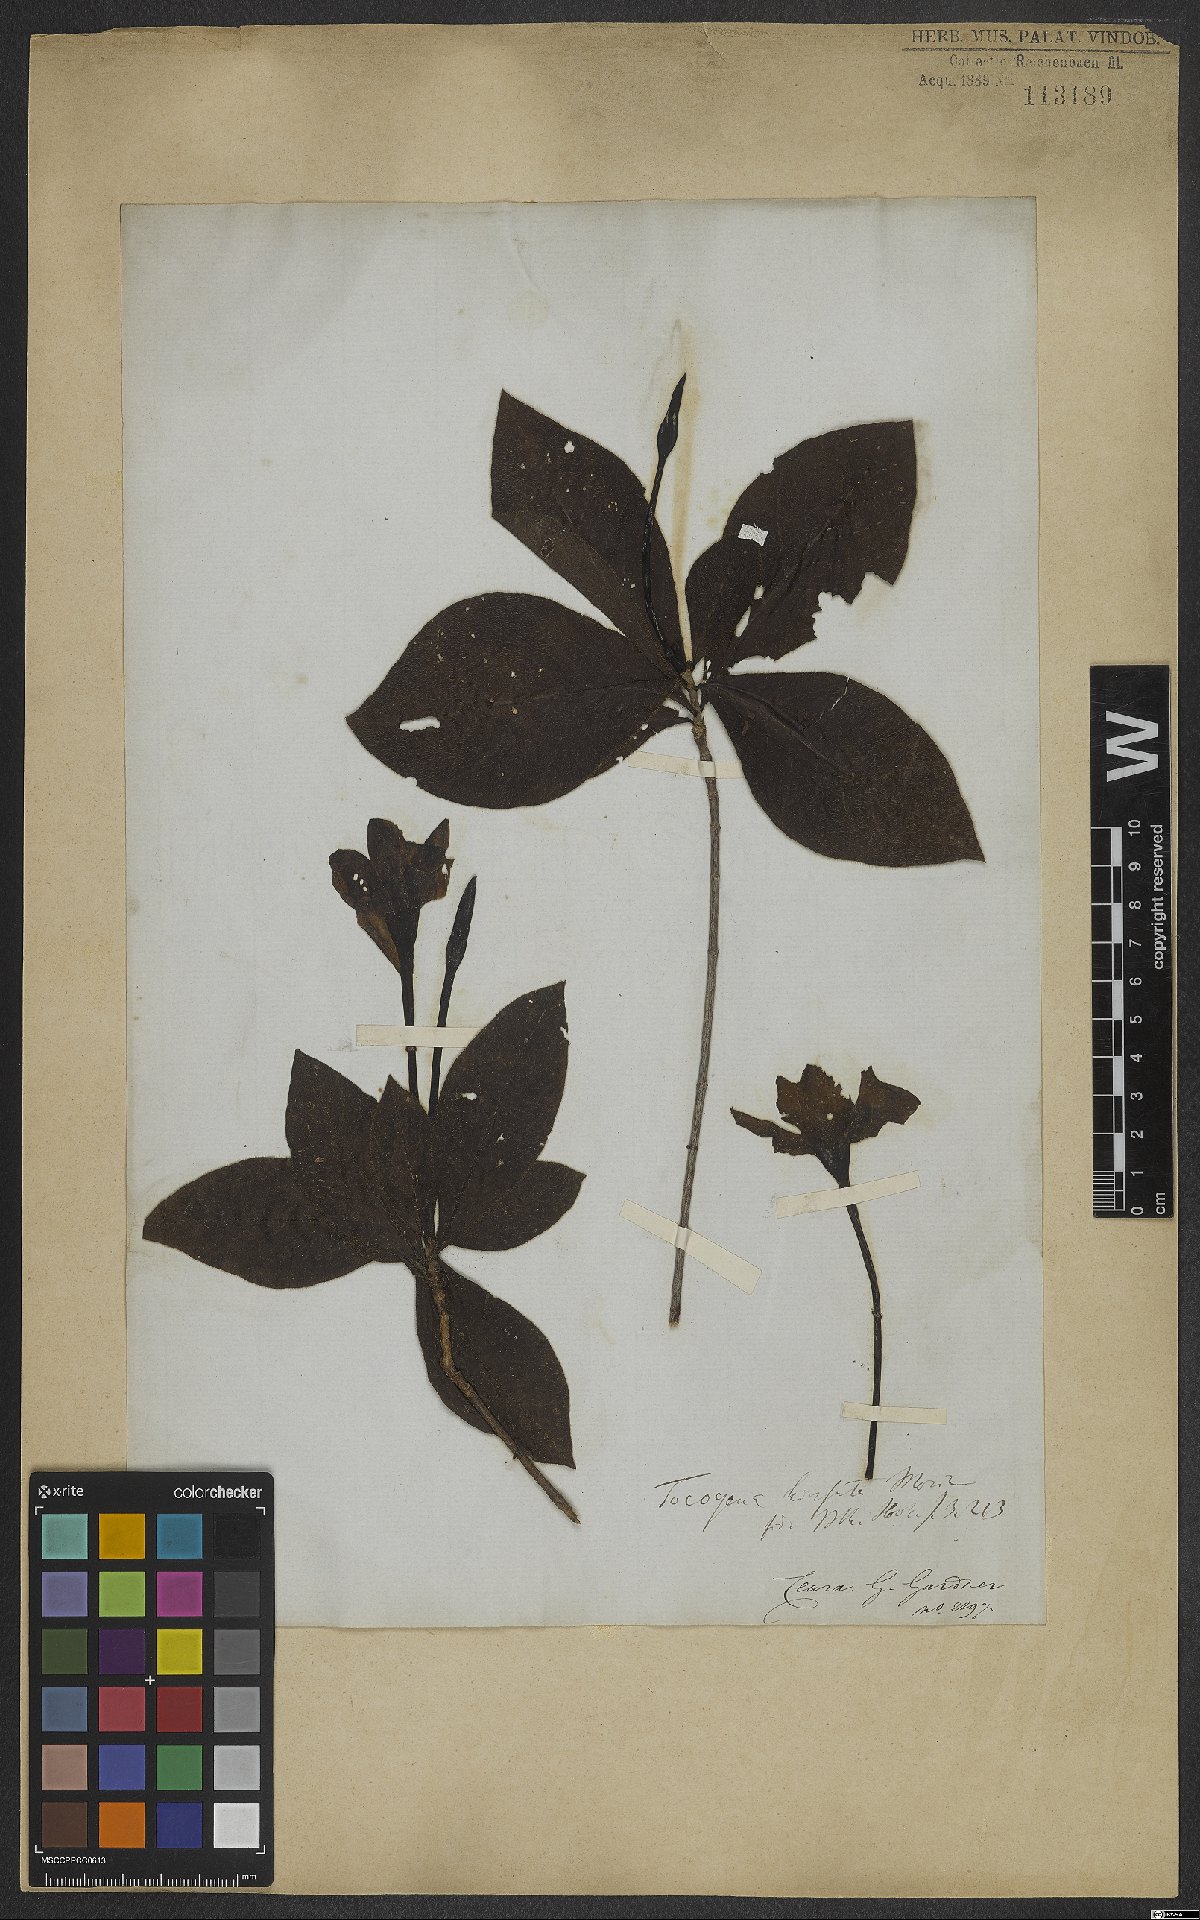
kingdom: Plantae
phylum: Tracheophyta
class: Magnoliopsida
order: Gentianales
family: Rubiaceae
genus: Tocoyena
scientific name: Tocoyena formosa
